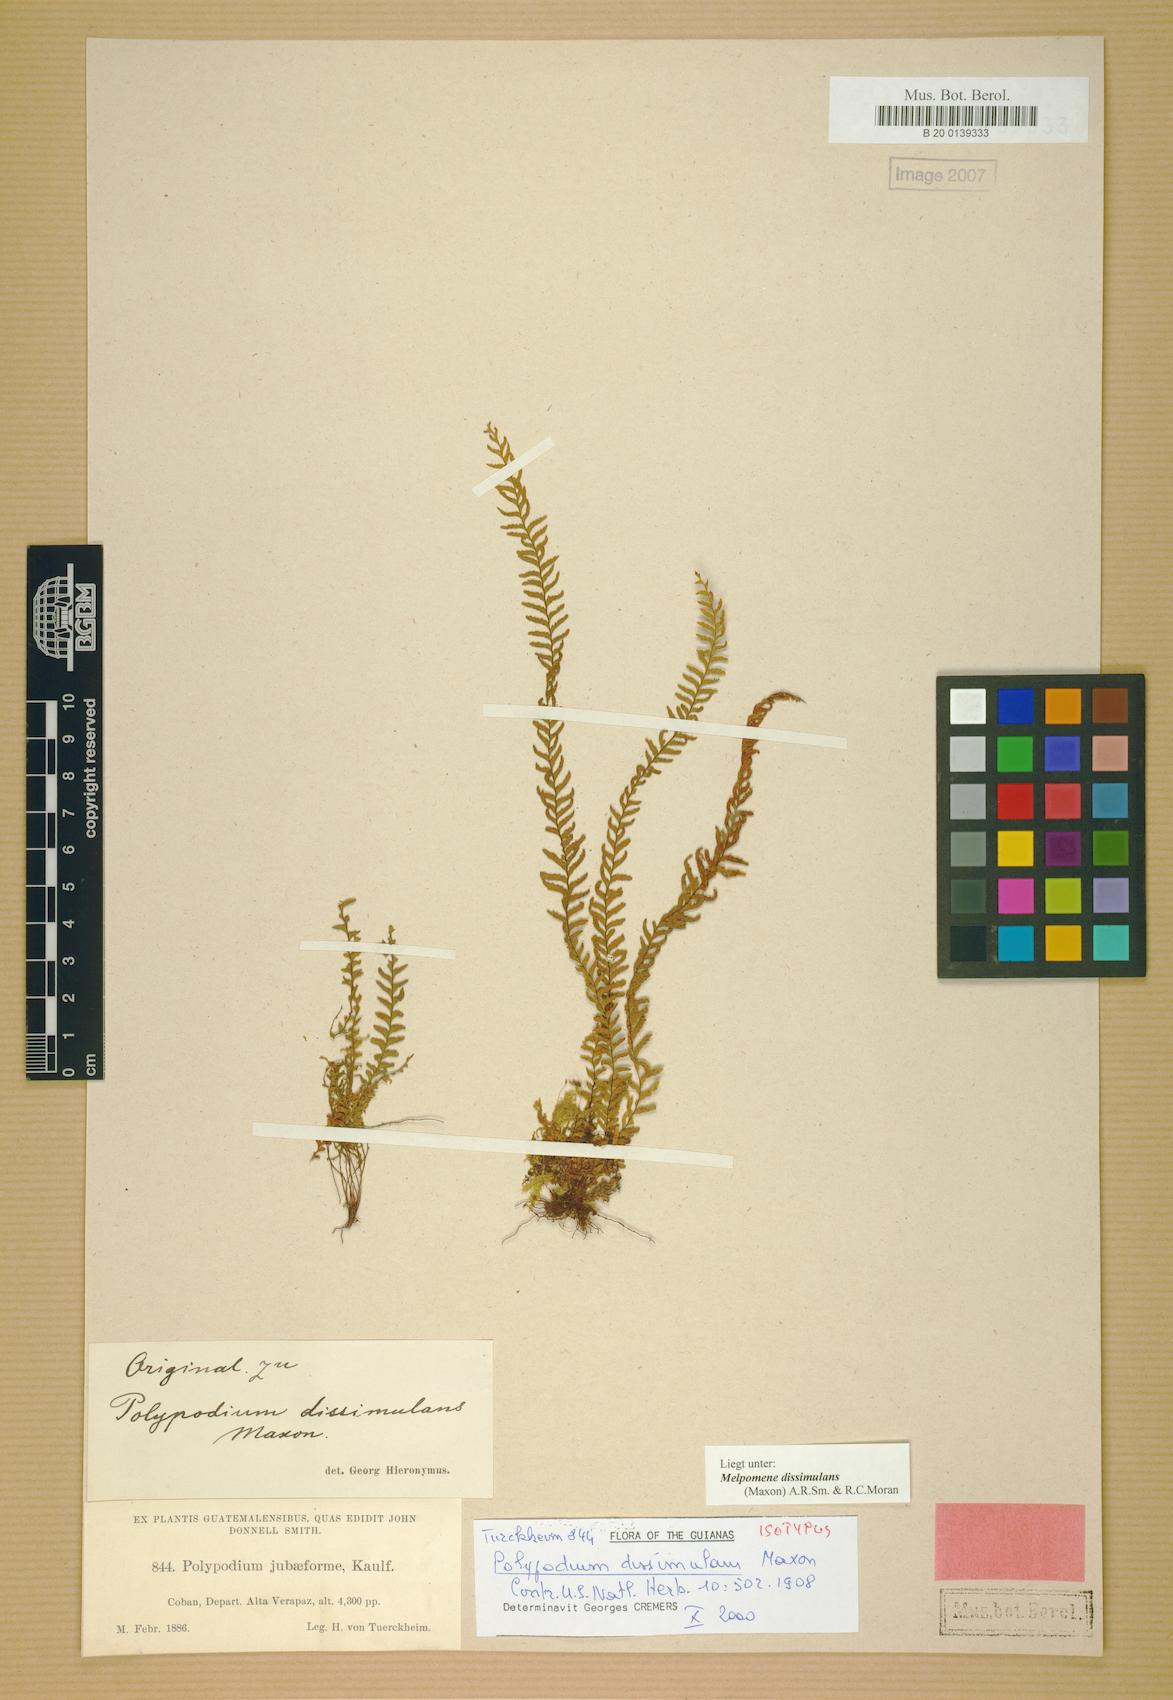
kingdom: Plantae
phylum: Tracheophyta
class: Polypodiopsida
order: Polypodiales
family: Polypodiaceae
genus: Lellingeria
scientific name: Lellingeria dissimulans
